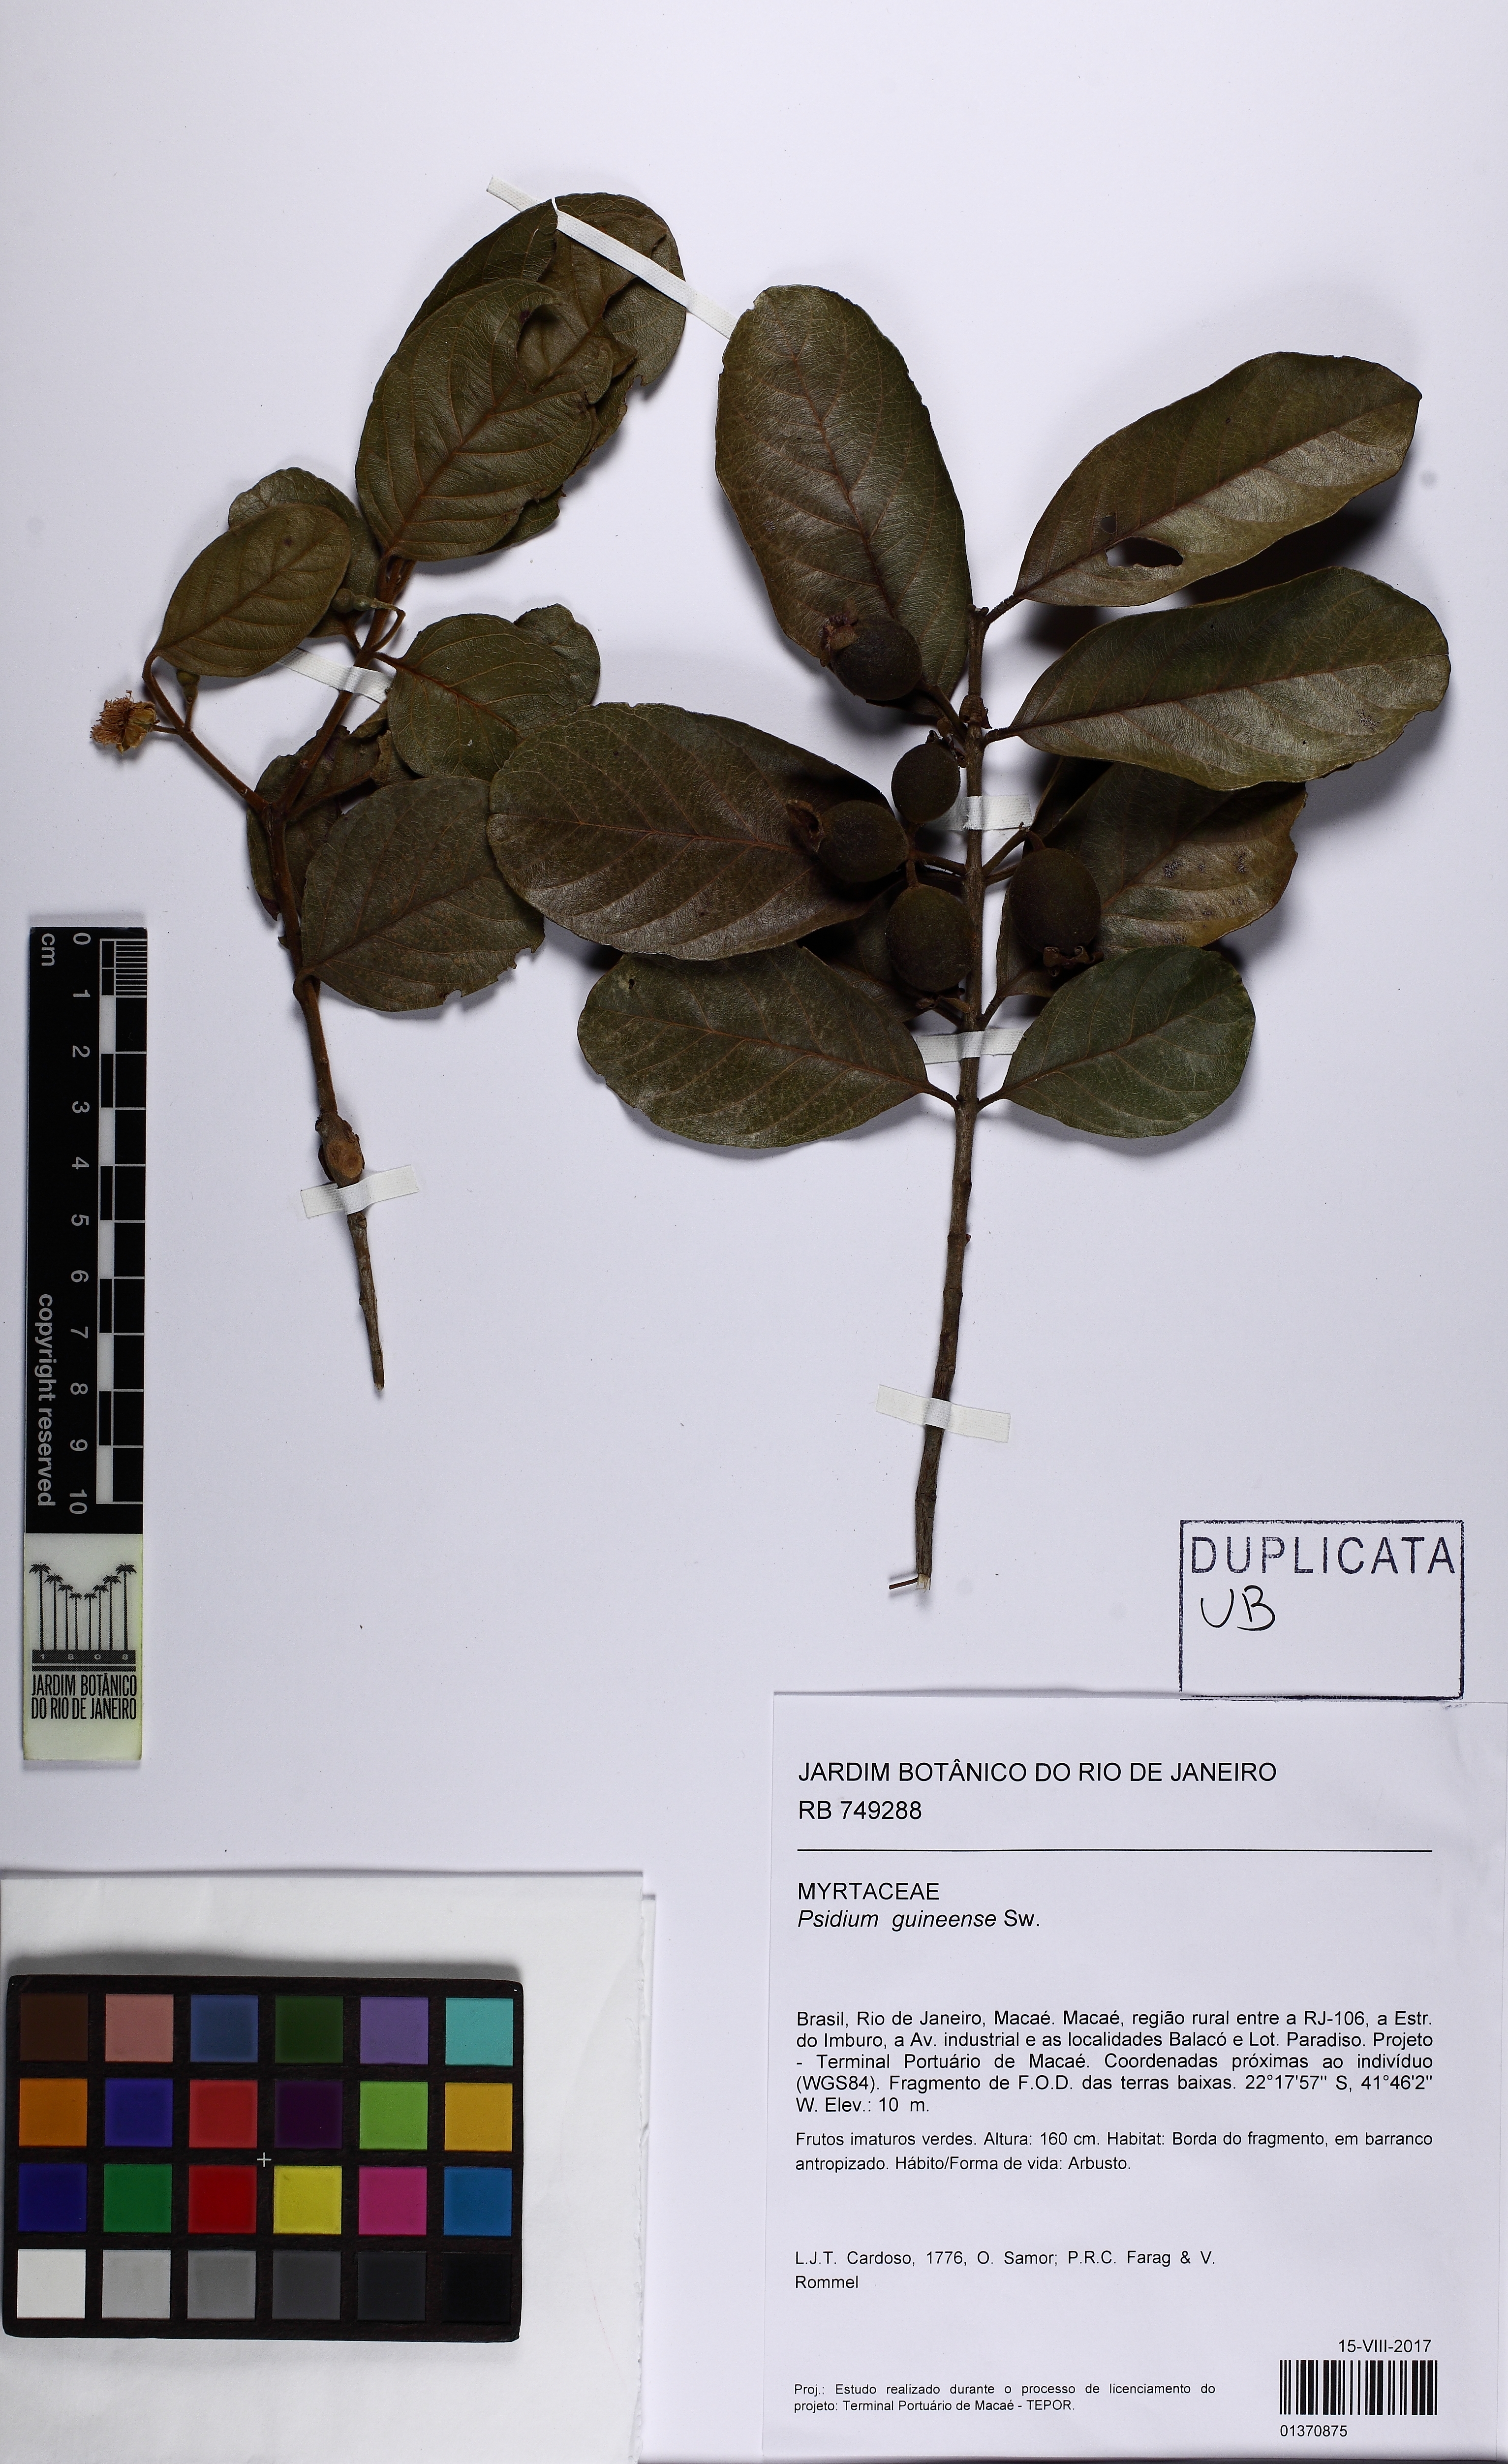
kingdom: Plantae
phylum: Tracheophyta
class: Magnoliopsida
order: Myrtales
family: Myrtaceae
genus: Psidium
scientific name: Psidium guineense
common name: Brazilian guava
